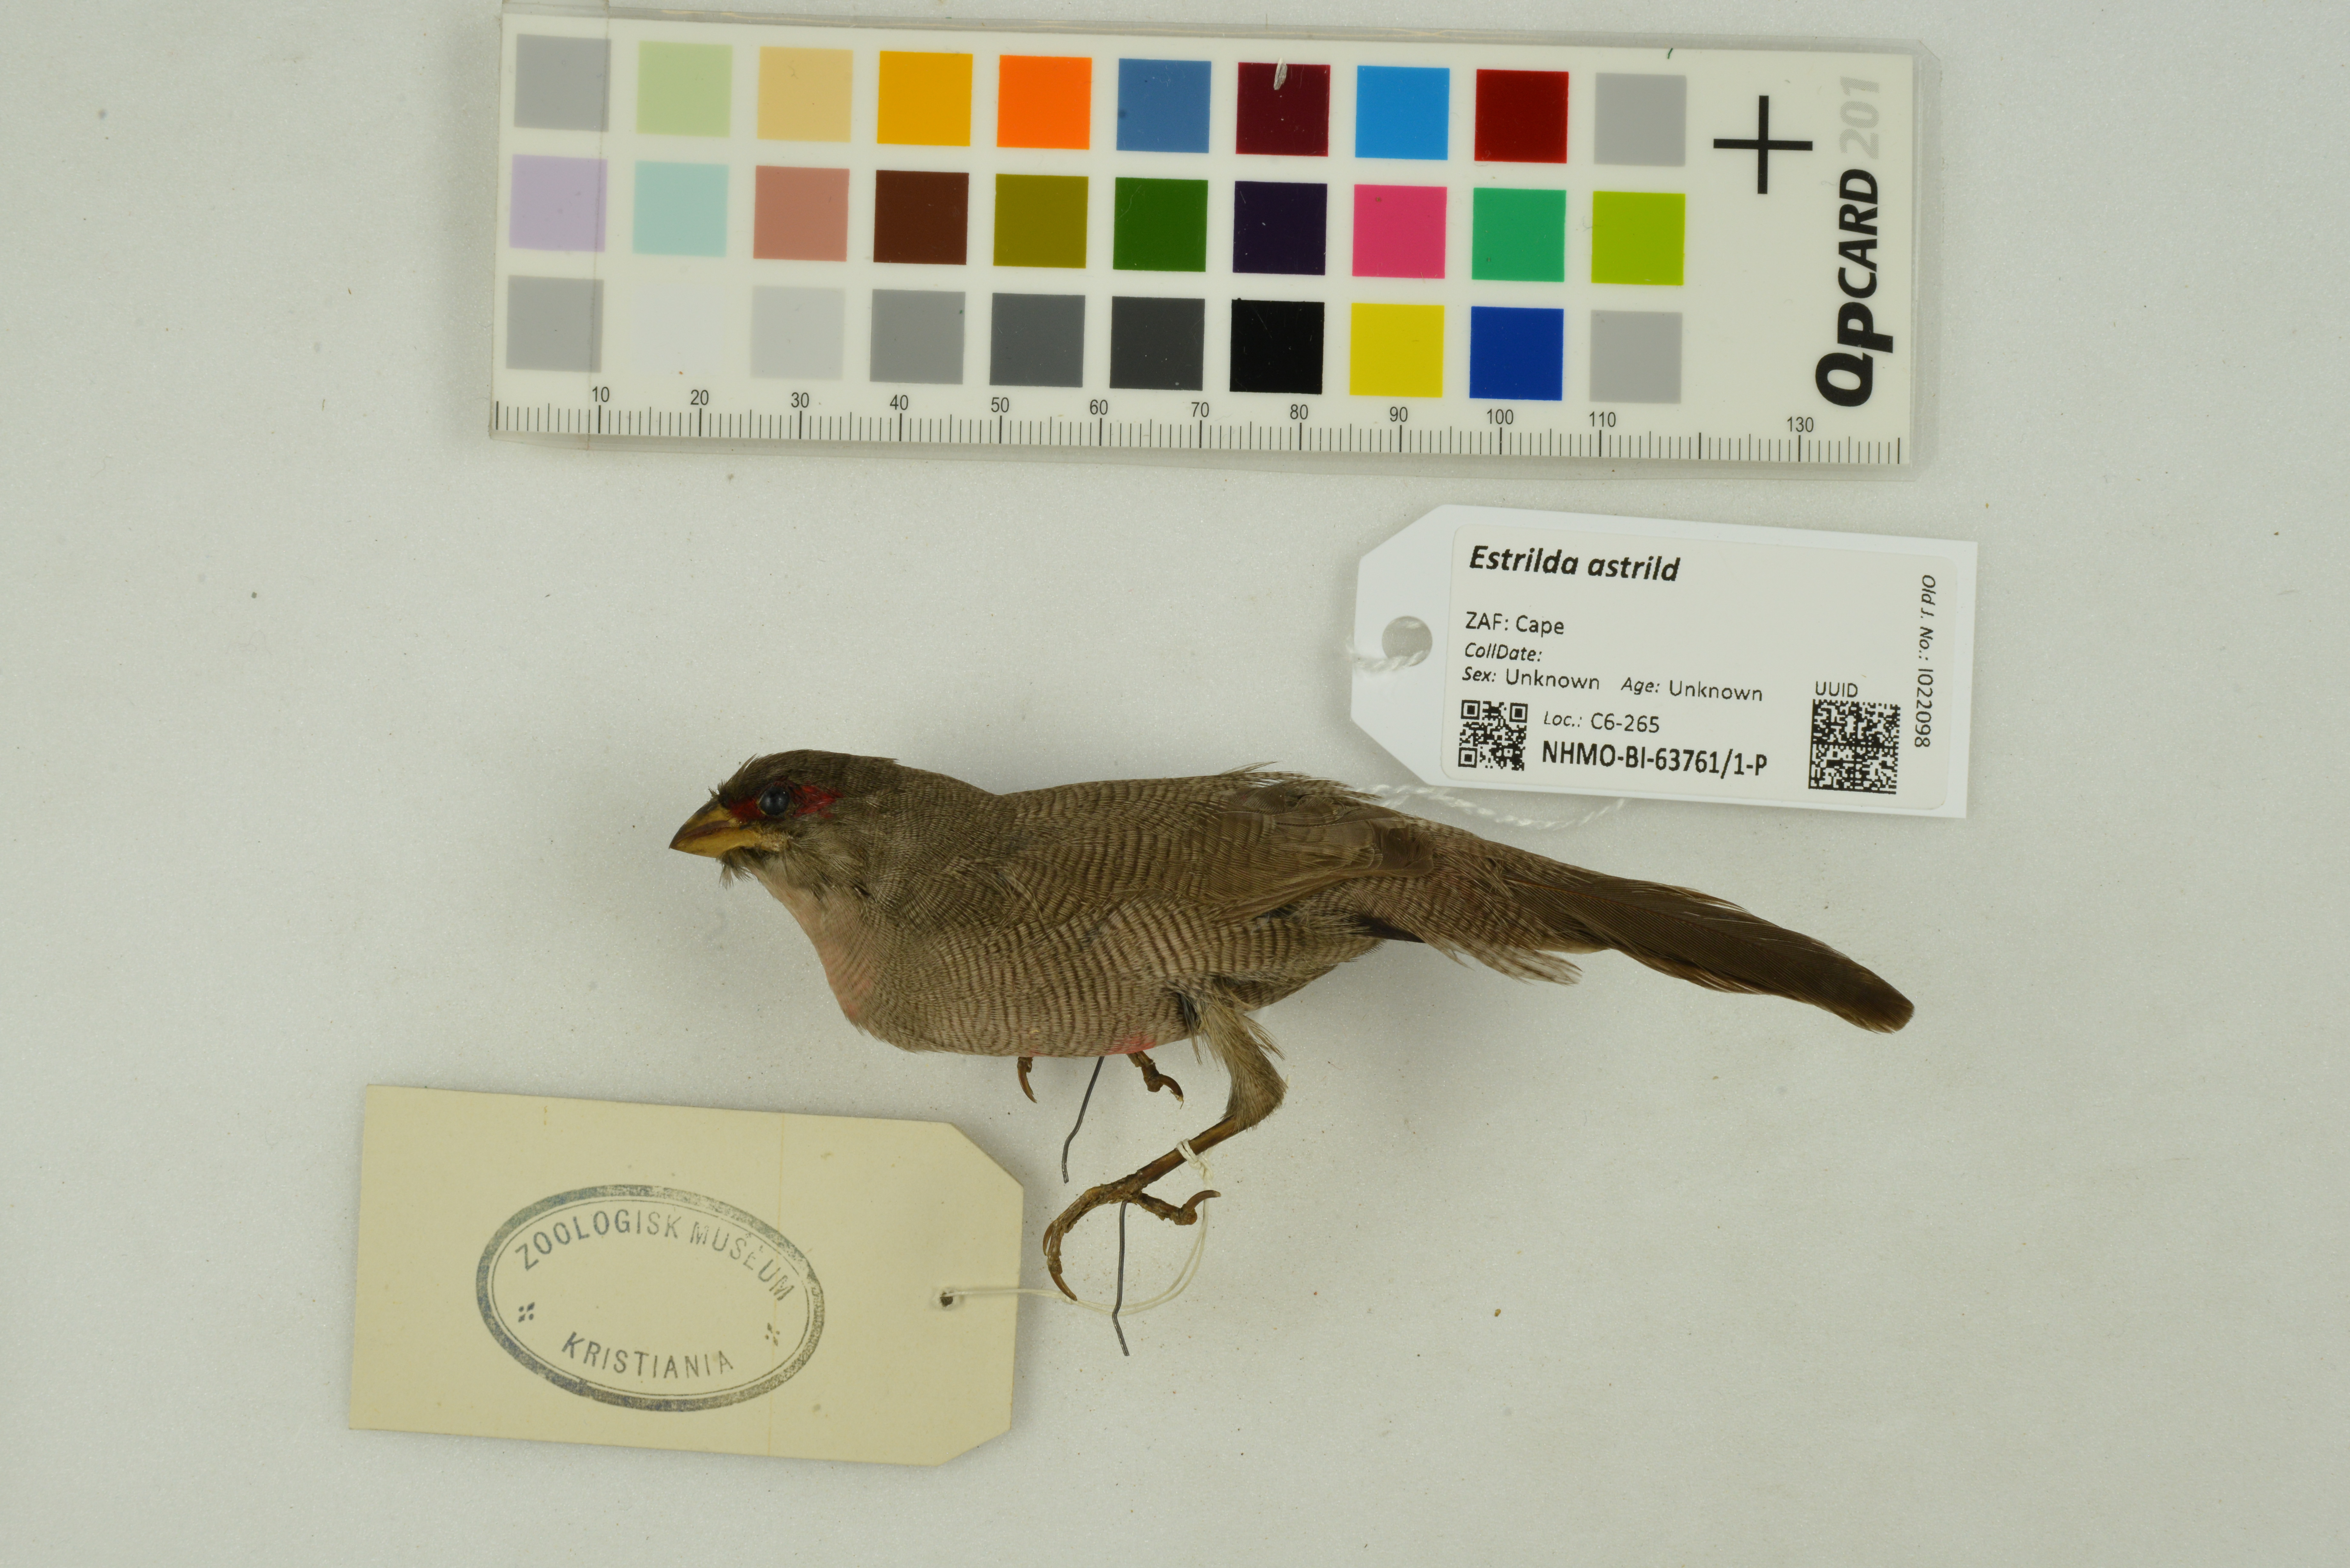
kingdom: Animalia
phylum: Chordata
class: Aves
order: Passeriformes
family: Estrildidae
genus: Estrilda
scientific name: Estrilda astrild
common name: Common waxbill
